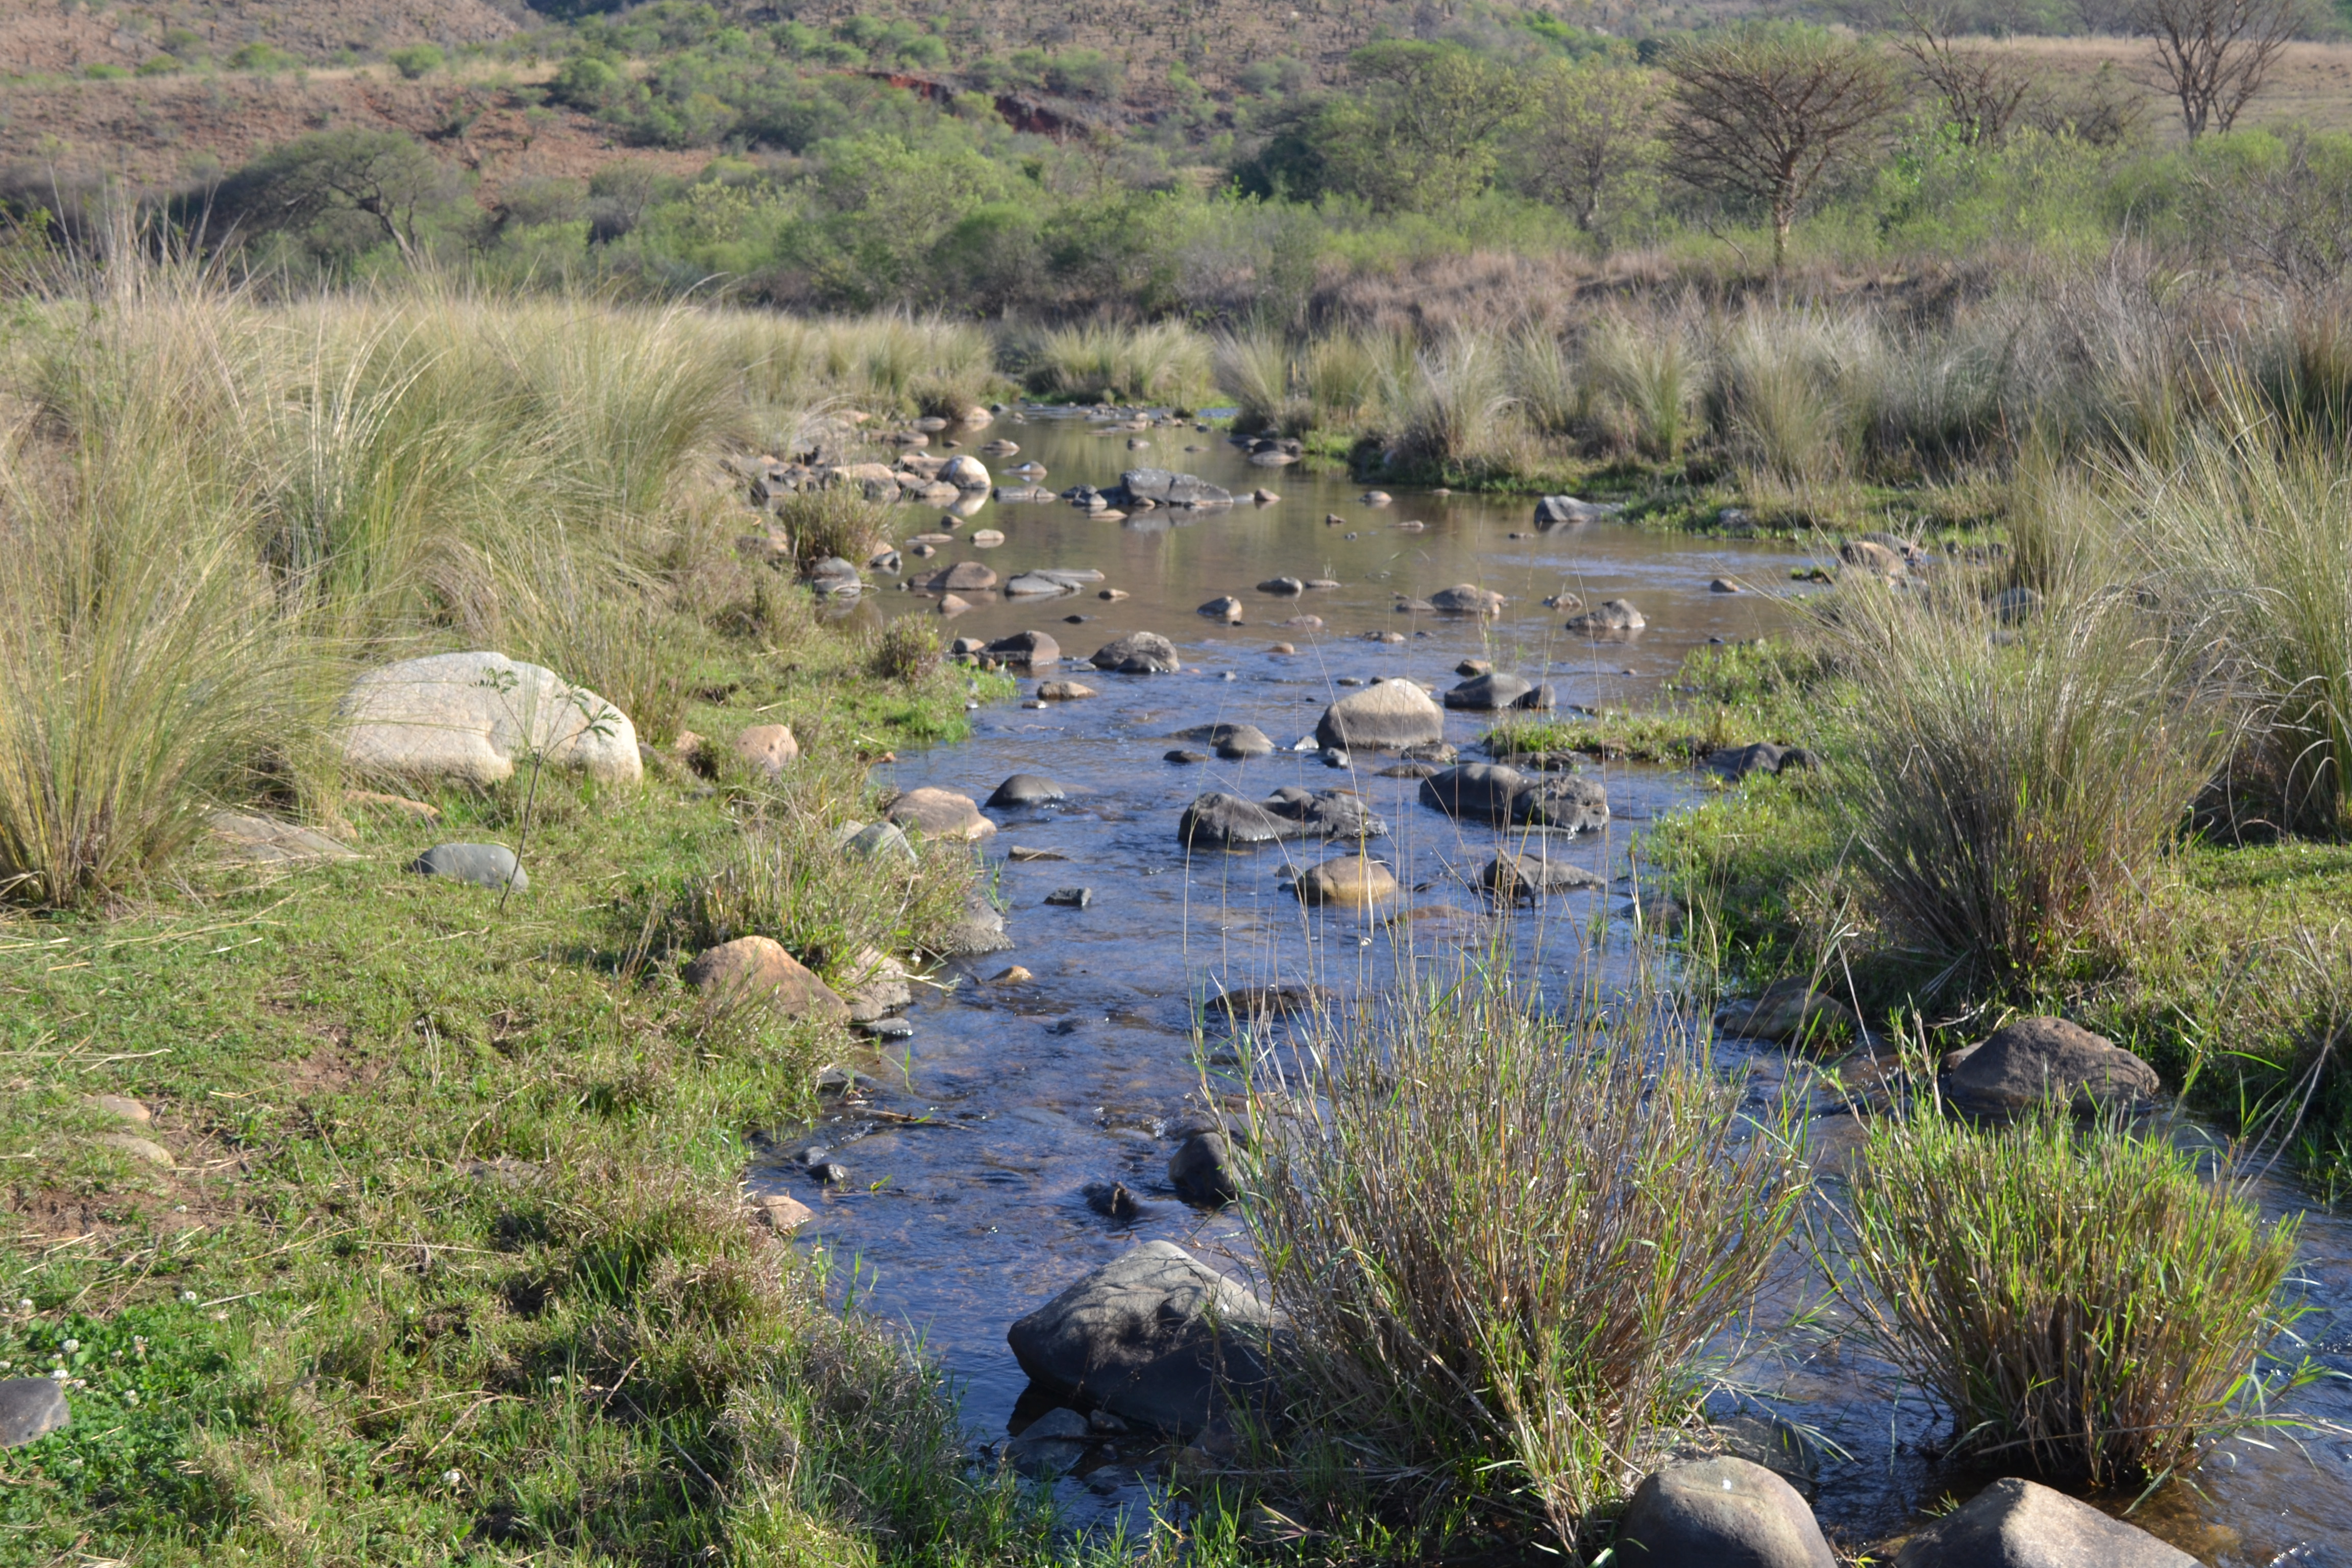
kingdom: Animalia
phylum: Chordata
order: Perciformes
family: Gobiidae
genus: Glossogobius
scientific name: Glossogobius callidus
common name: River goby
